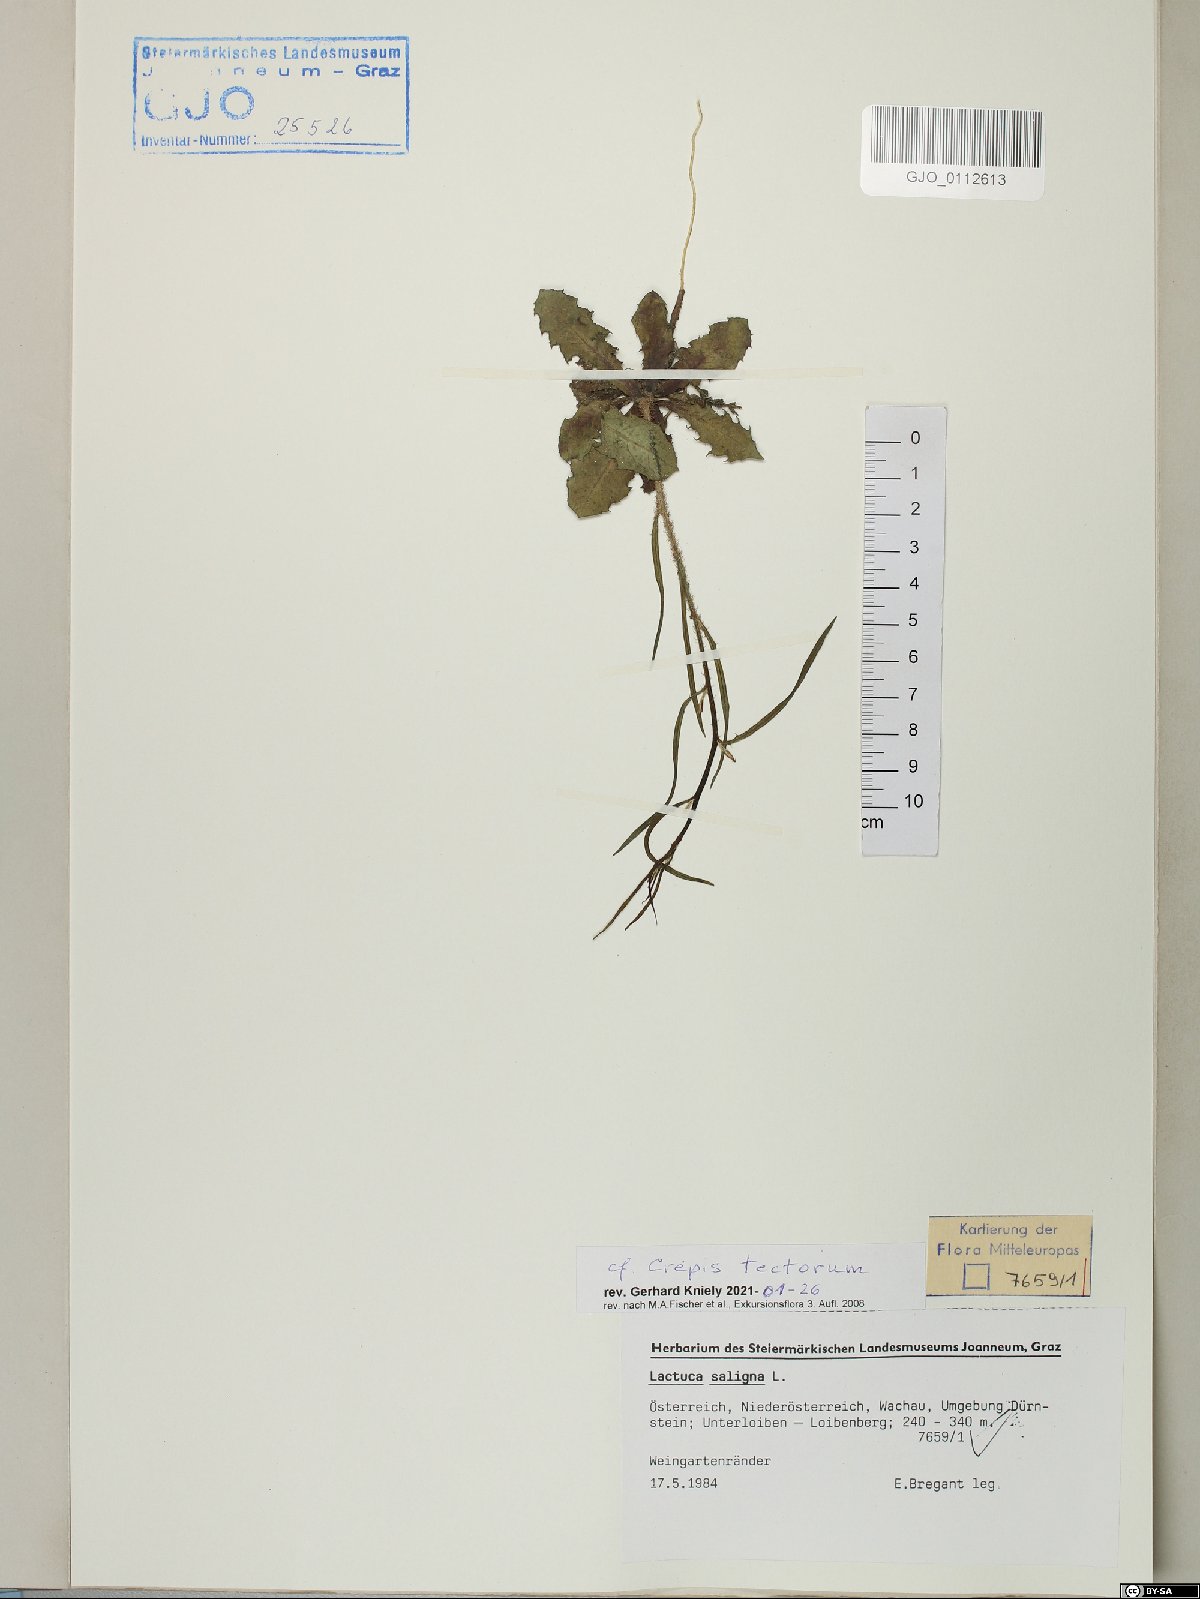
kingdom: Plantae
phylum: Tracheophyta
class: Magnoliopsida
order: Asterales
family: Asteraceae
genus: Crepis
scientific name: Crepis tectorum
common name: Narrow-leaved hawk's-beard
